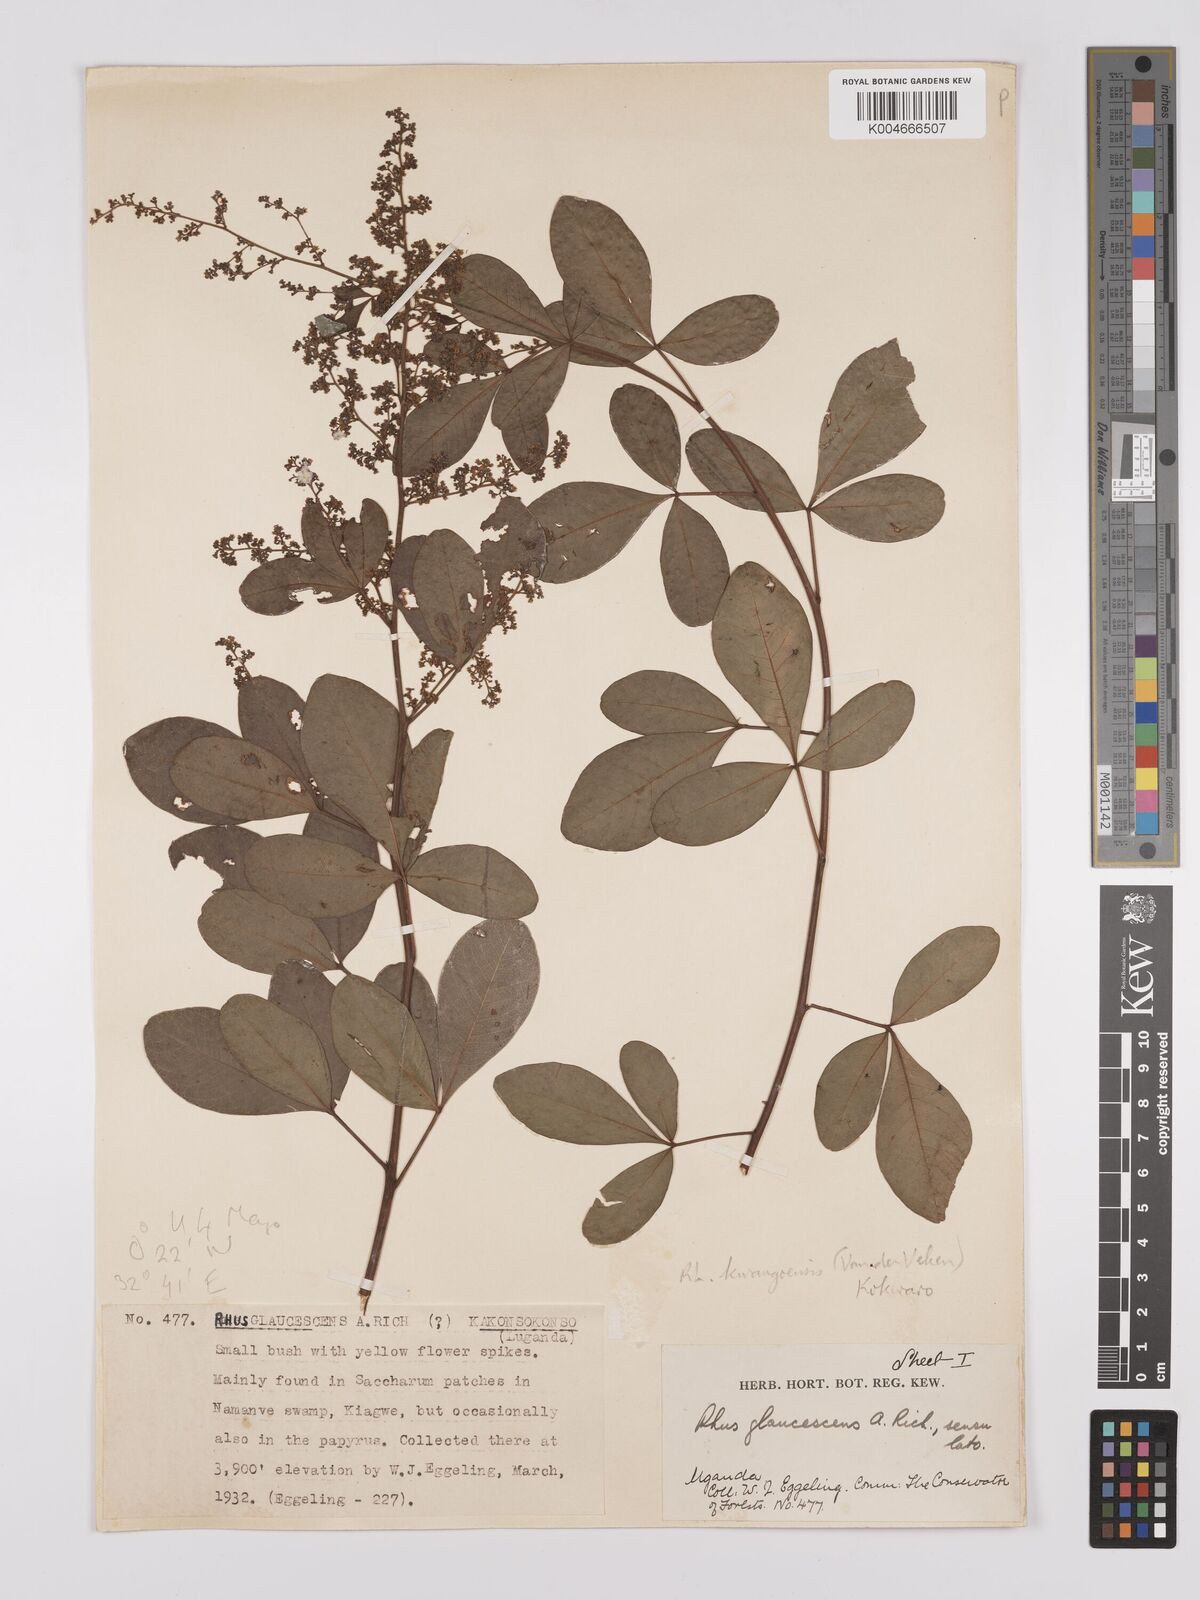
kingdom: Plantae
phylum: Tracheophyta
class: Magnoliopsida
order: Sapindales
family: Anacardiaceae
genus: Searsia
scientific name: Searsia kwangoensis
